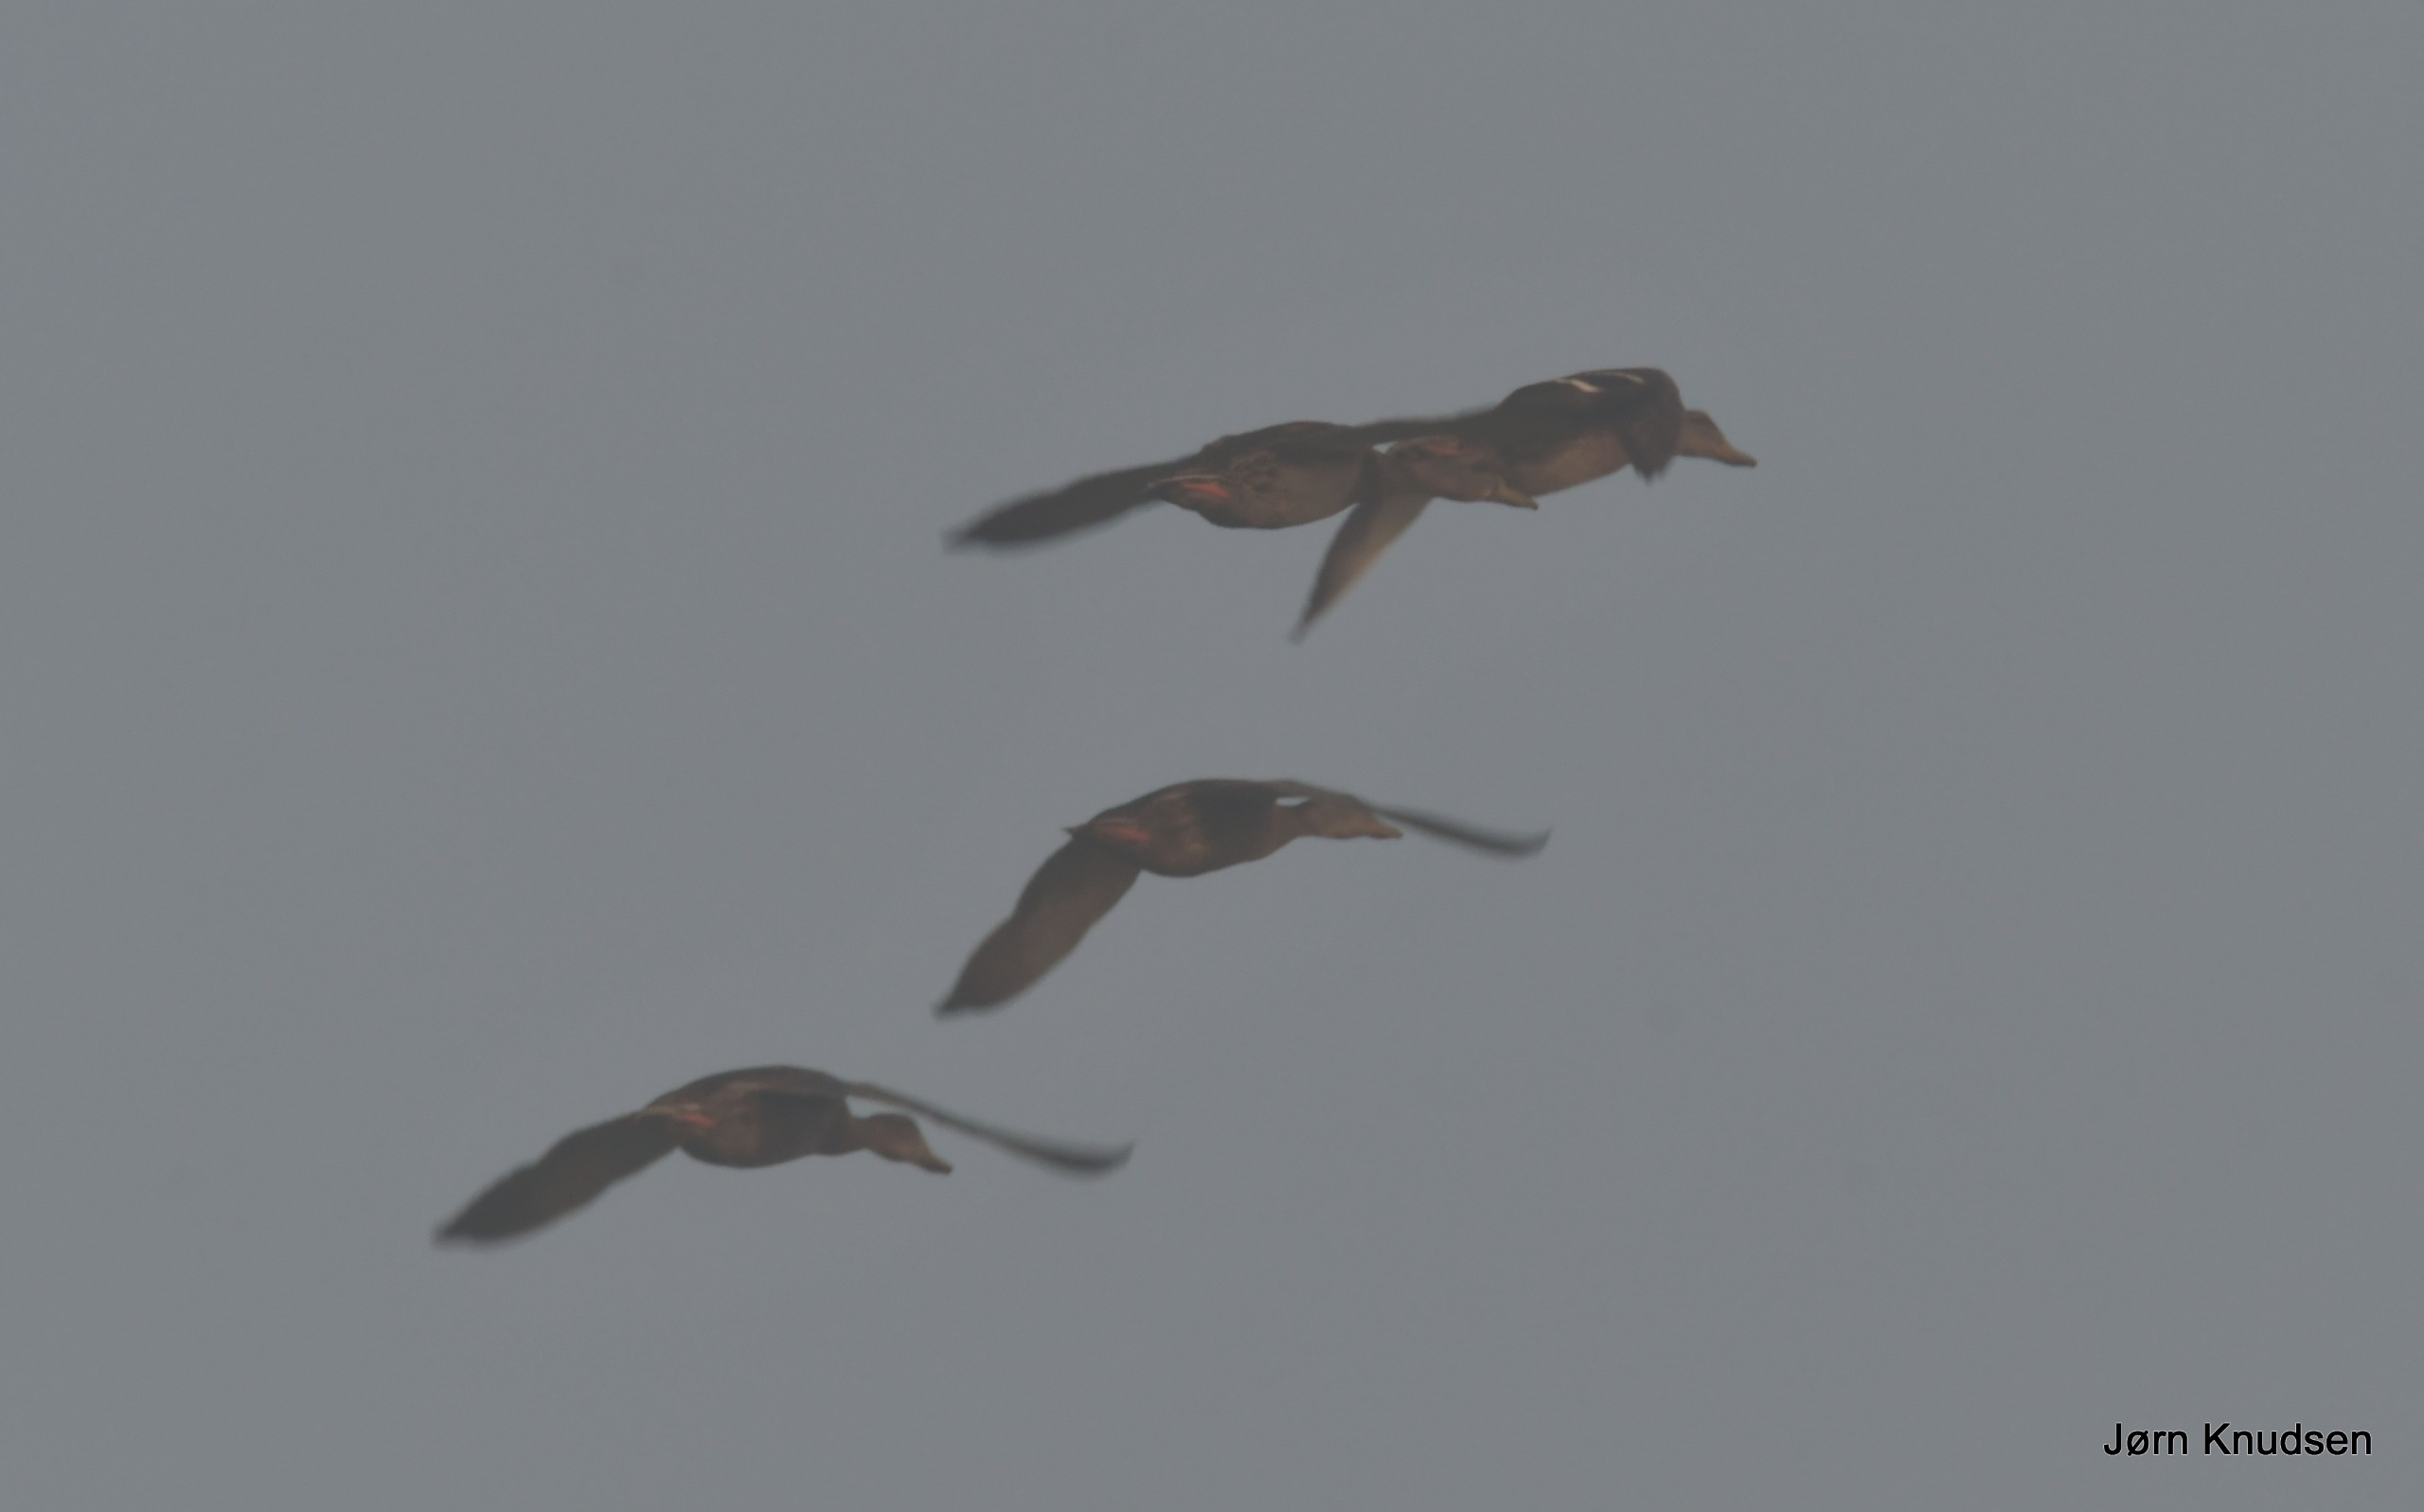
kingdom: Animalia
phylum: Chordata
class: Aves
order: Anseriformes
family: Anatidae
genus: Anas
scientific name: Anas platyrhynchos
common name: Gråand
